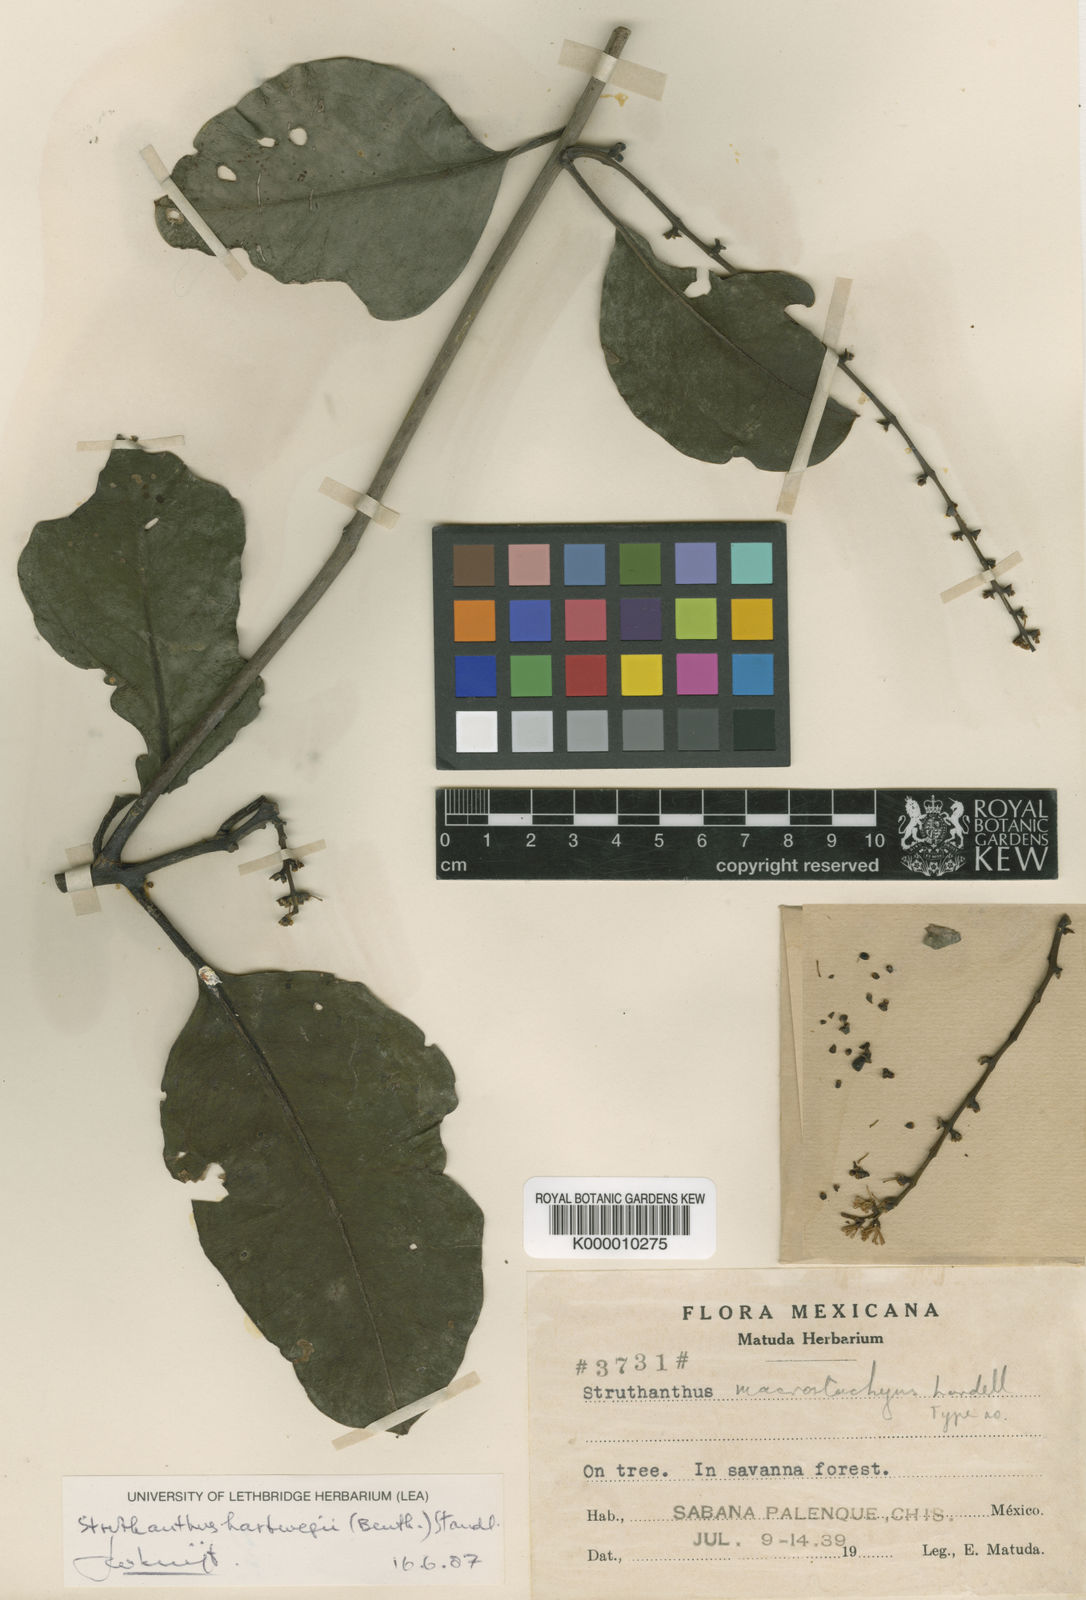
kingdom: Plantae
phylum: Tracheophyta
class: Magnoliopsida
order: Santalales
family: Loranthaceae
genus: Struthanthus
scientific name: Struthanthus hartwegii
